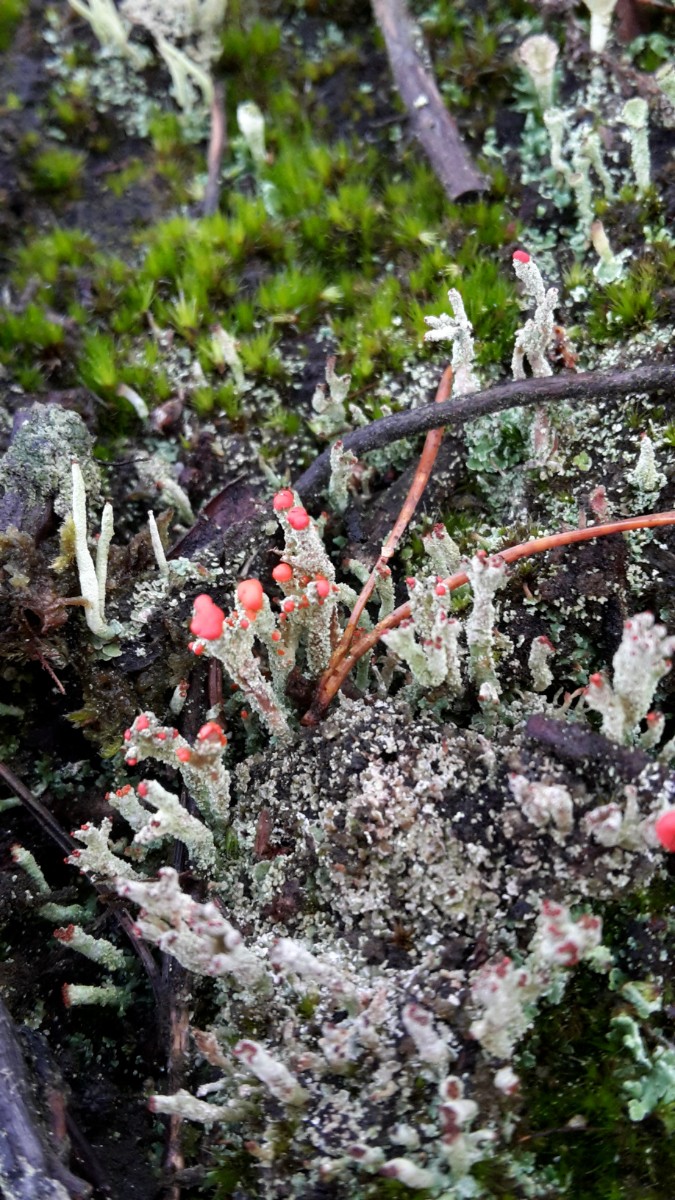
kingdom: Fungi
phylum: Ascomycota
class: Lecanoromycetes
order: Lecanorales
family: Cladoniaceae
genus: Cladonia
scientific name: Cladonia floerkeana
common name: lakrød bægerlav
